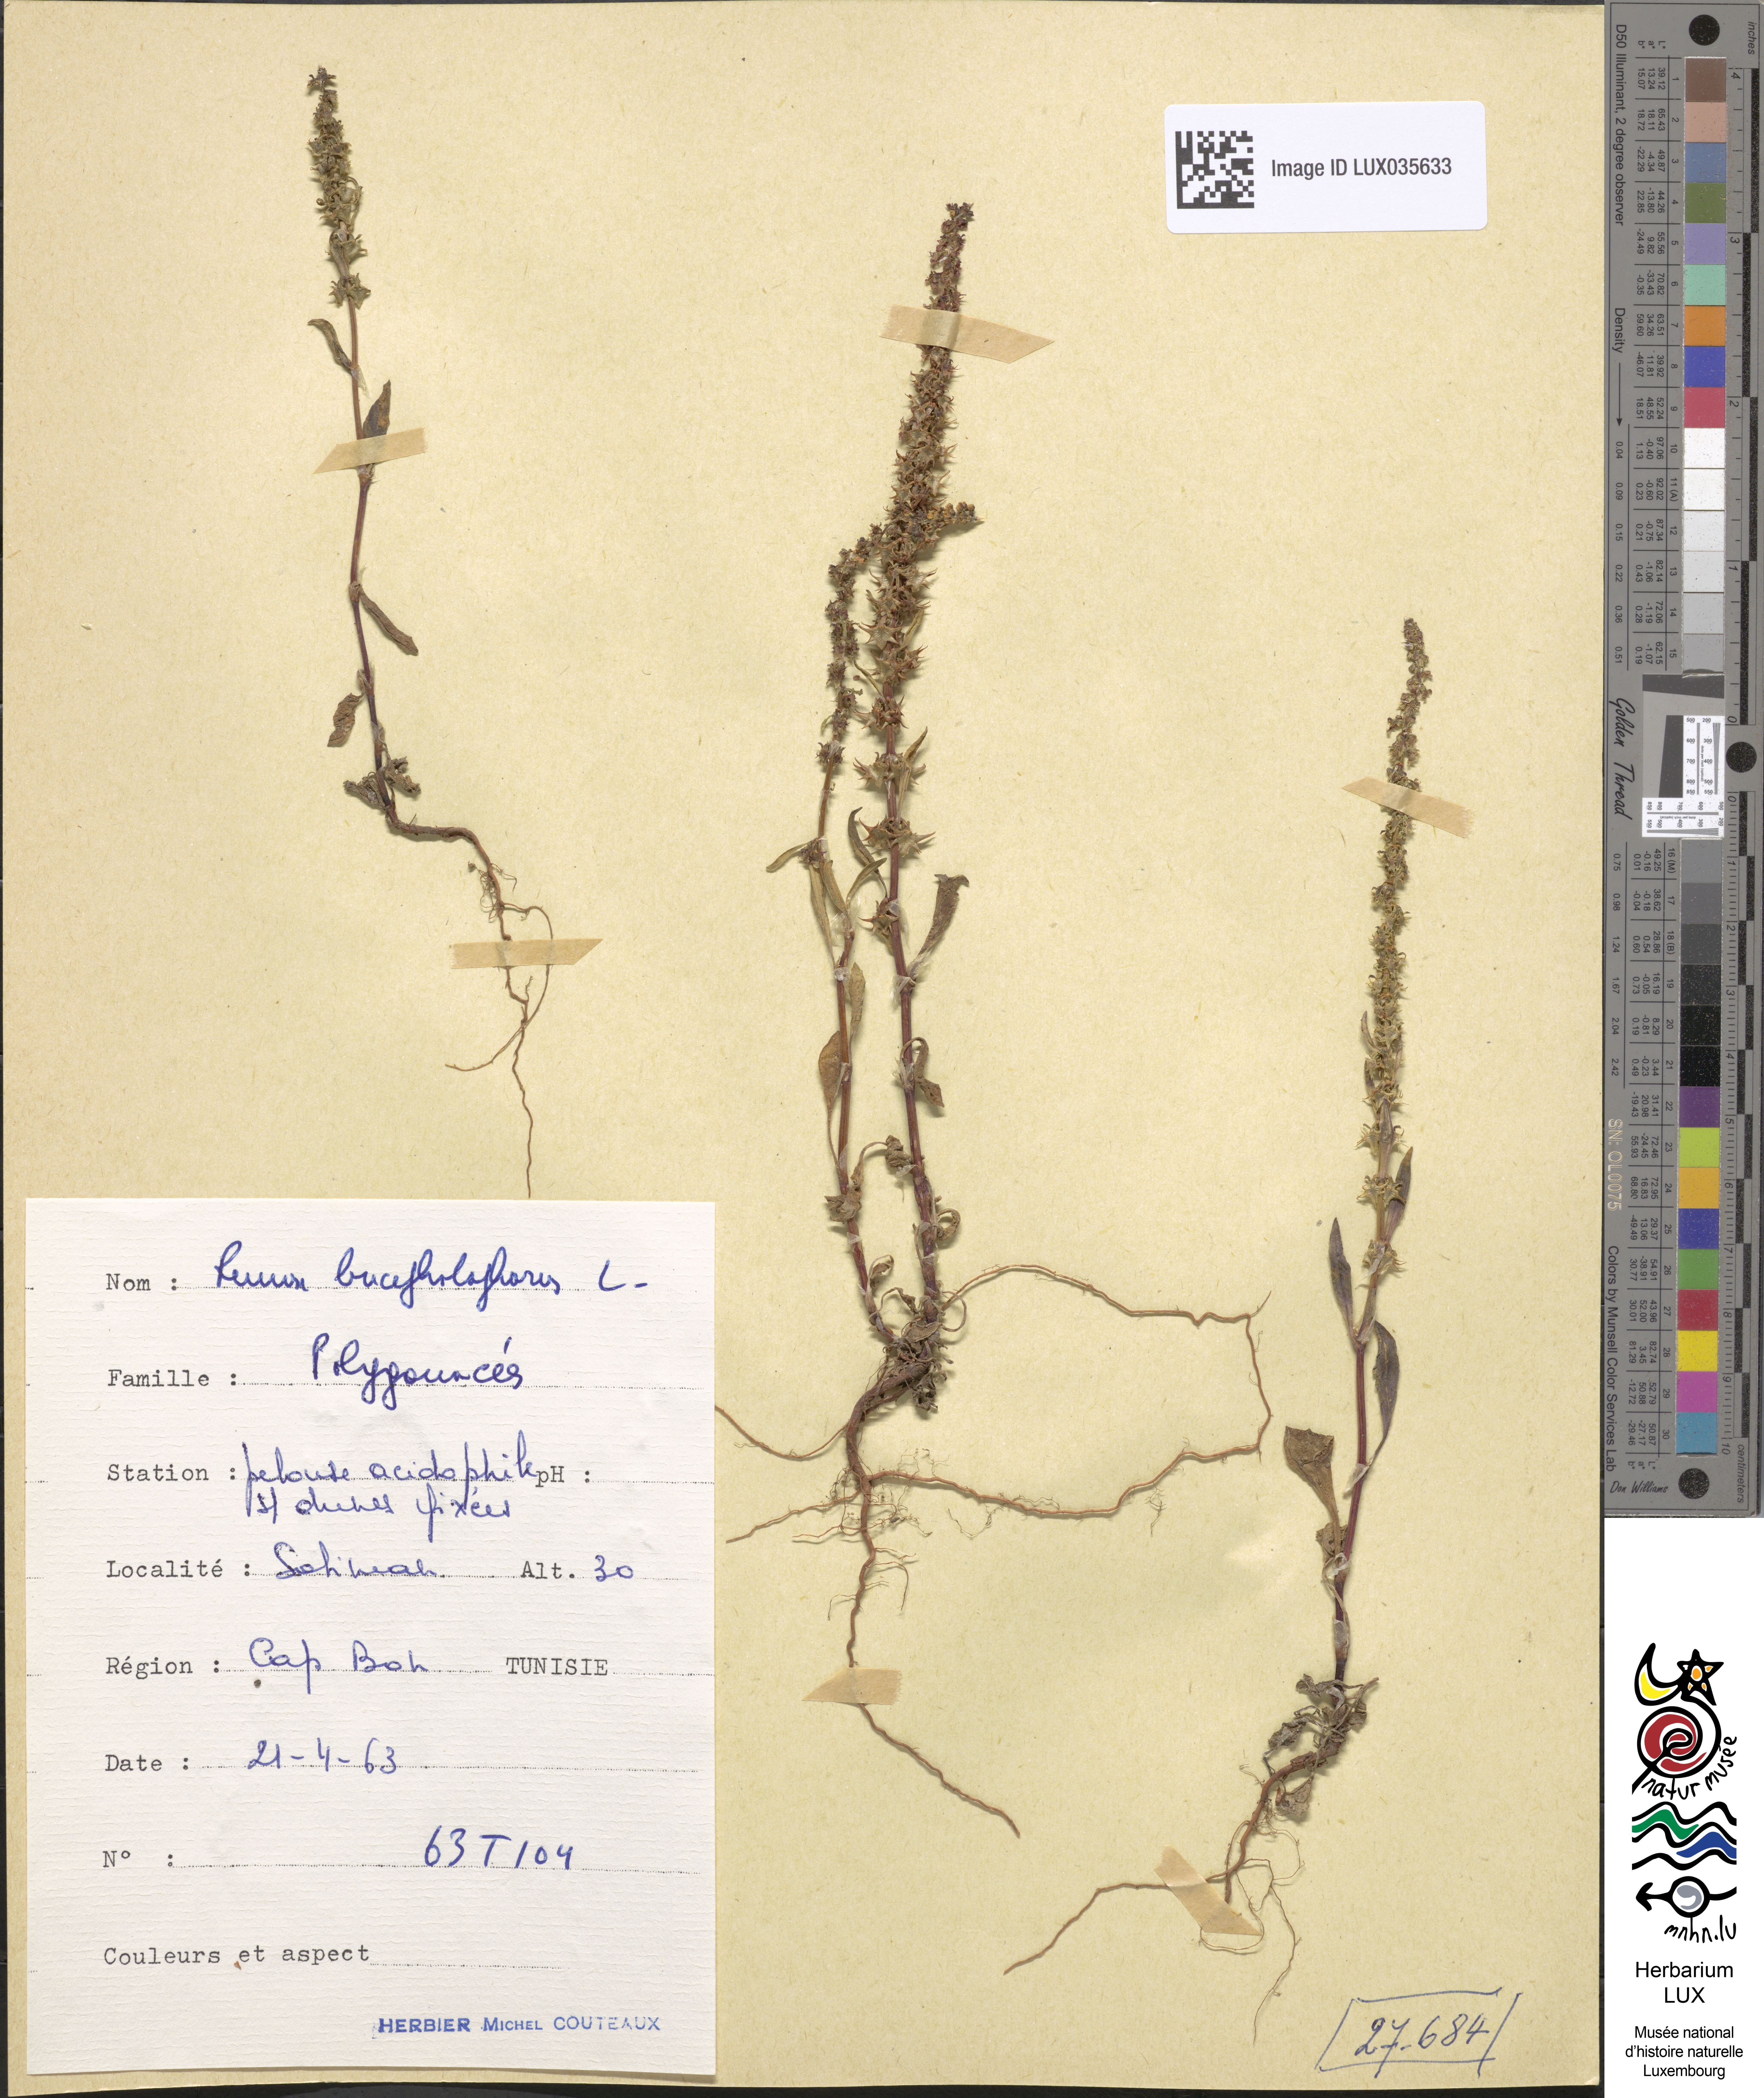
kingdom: Plantae
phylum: Tracheophyta
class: Magnoliopsida
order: Caryophyllales
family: Polygonaceae
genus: Rumex
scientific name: Rumex bucephalophorus
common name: Red dock
